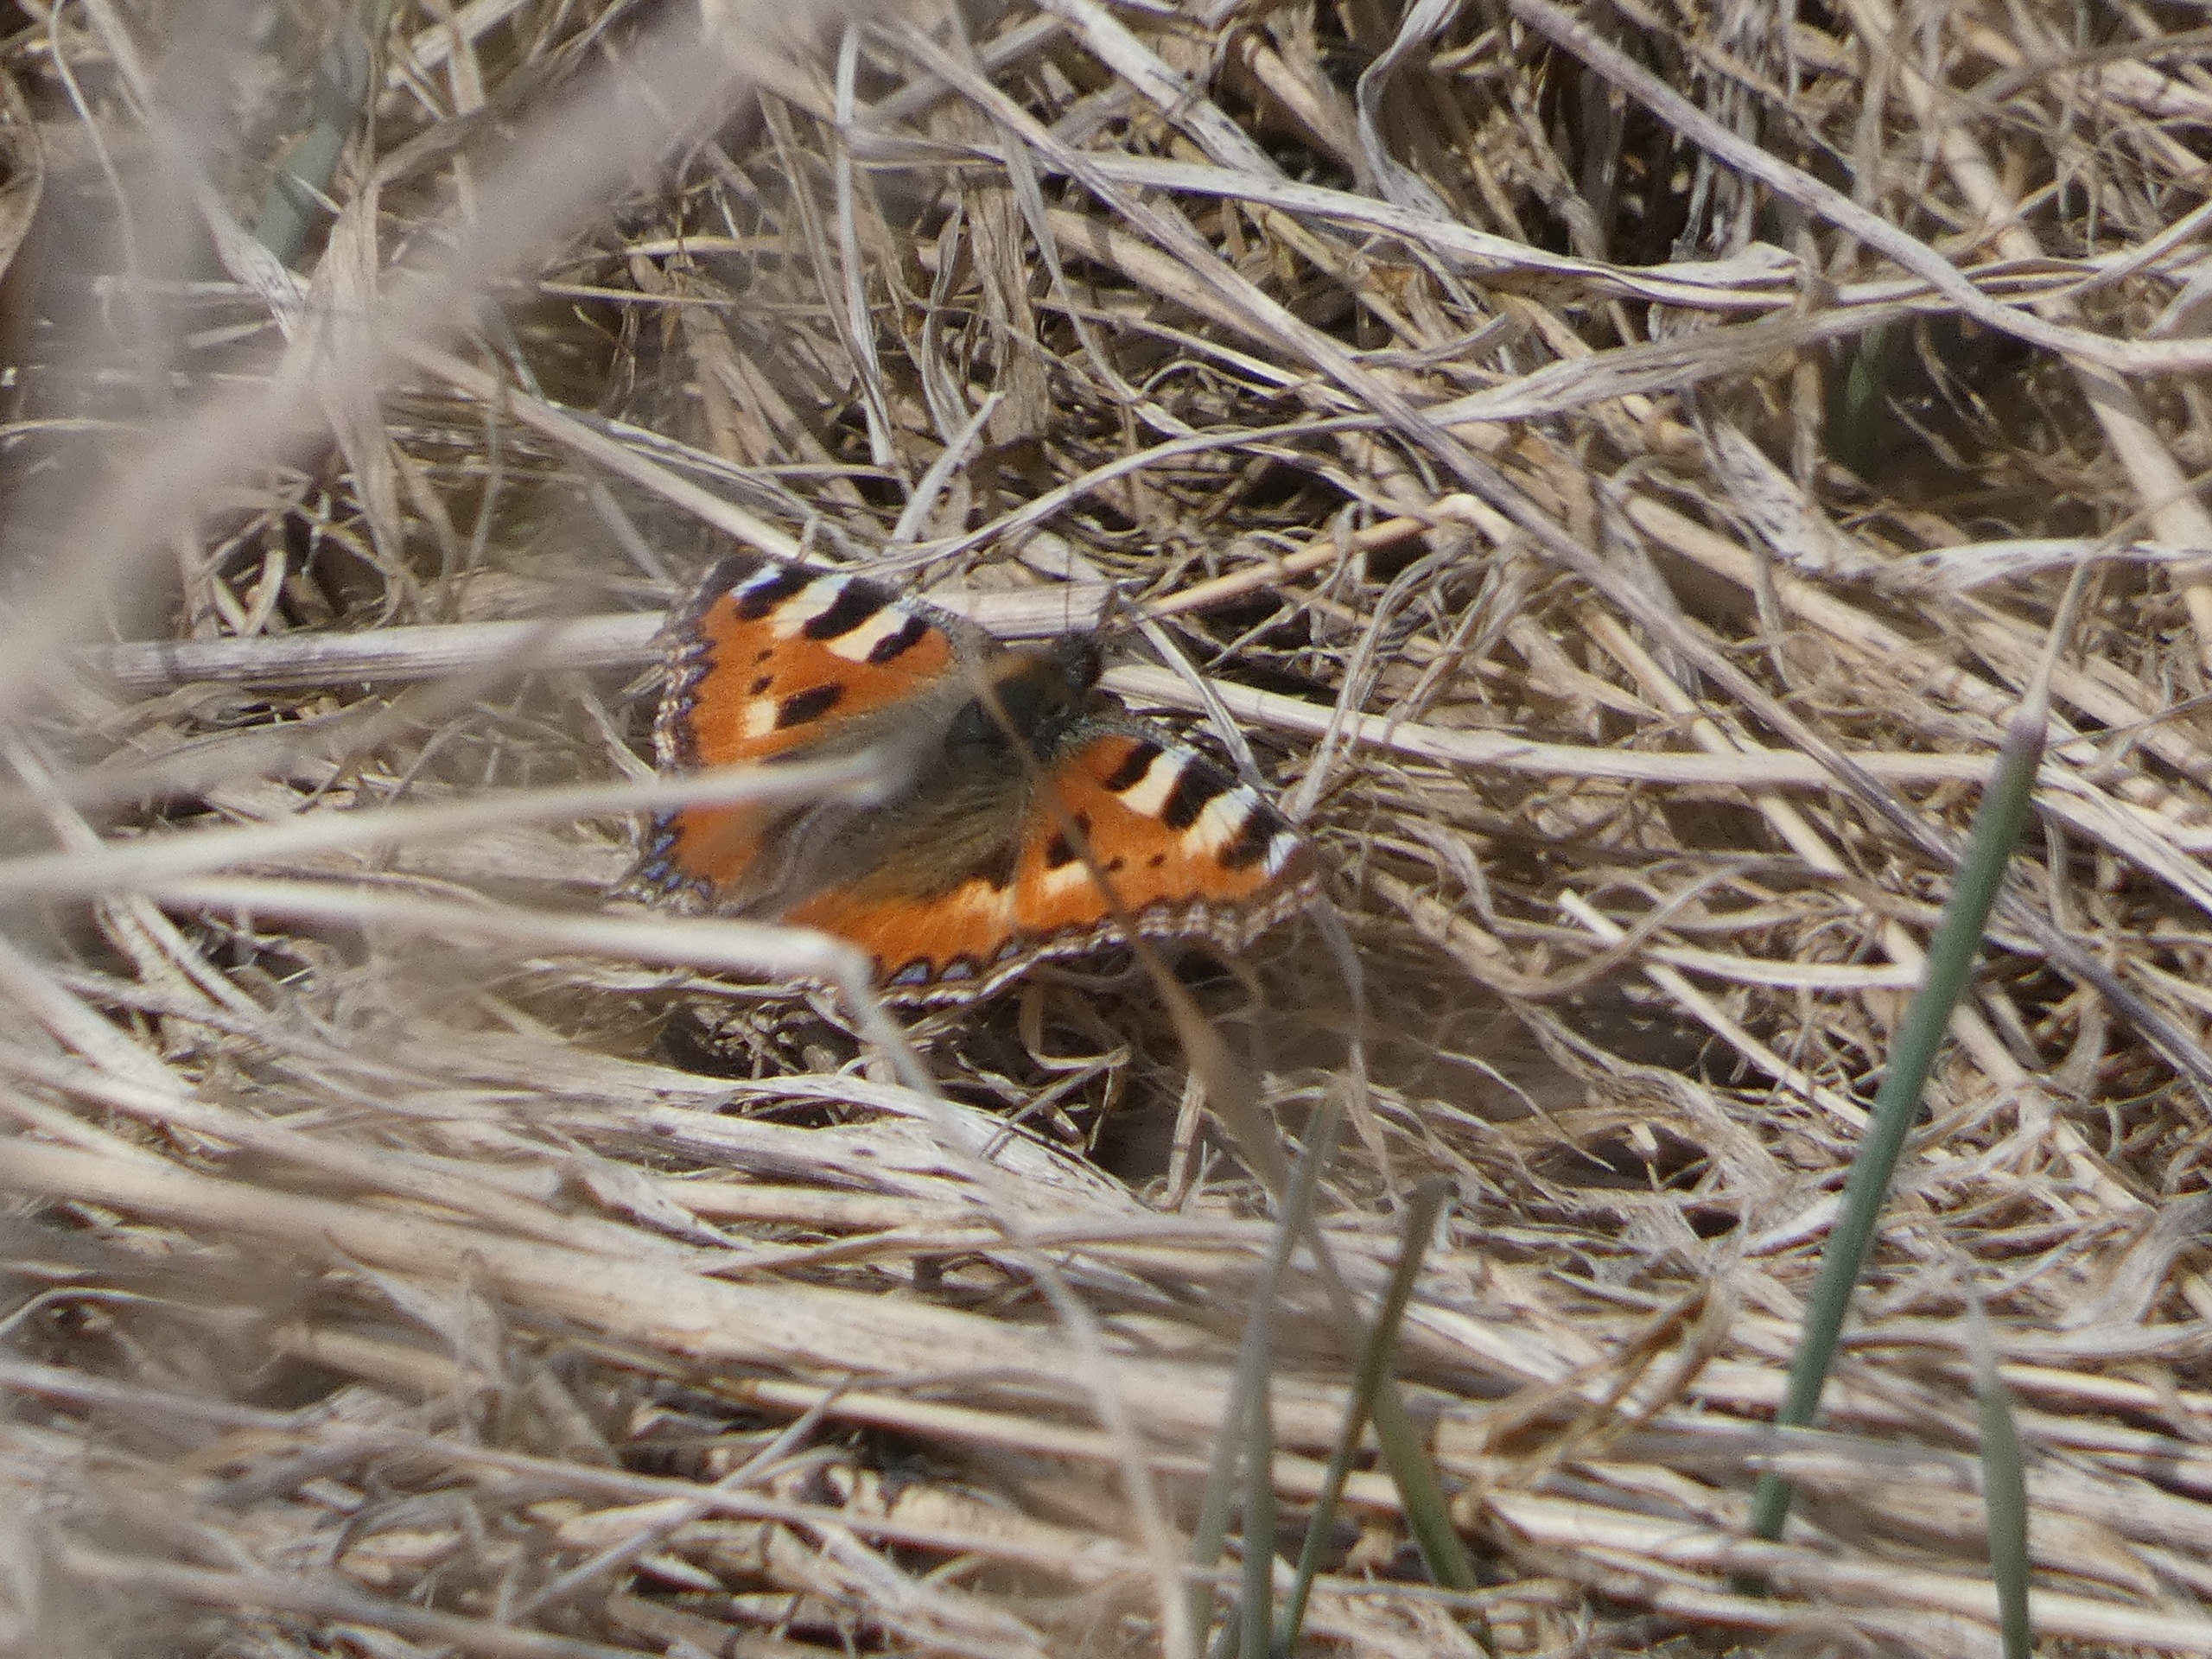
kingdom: Animalia
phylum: Arthropoda
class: Insecta
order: Lepidoptera
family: Nymphalidae
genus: Aglais
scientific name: Aglais urticae
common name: Nældens takvinge
